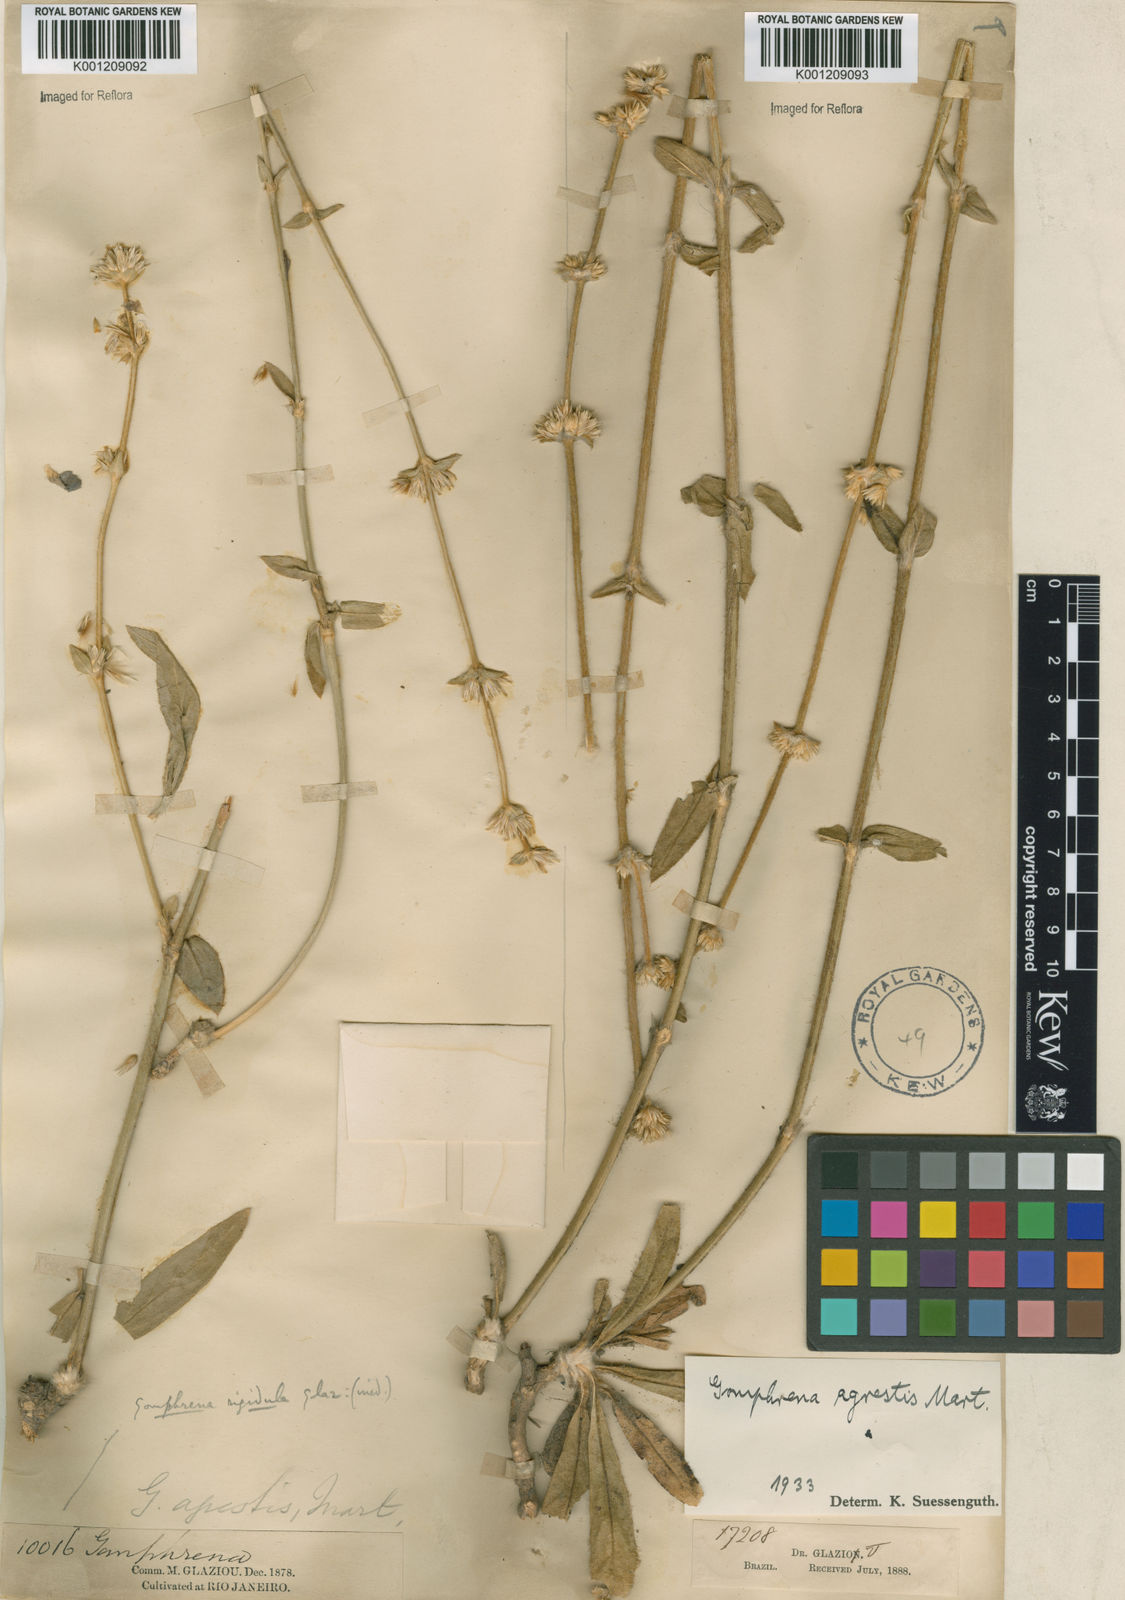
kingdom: Plantae
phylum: Tracheophyta
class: Magnoliopsida
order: Caryophyllales
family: Amaranthaceae
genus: Gomphrena
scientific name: Gomphrena agrestis
